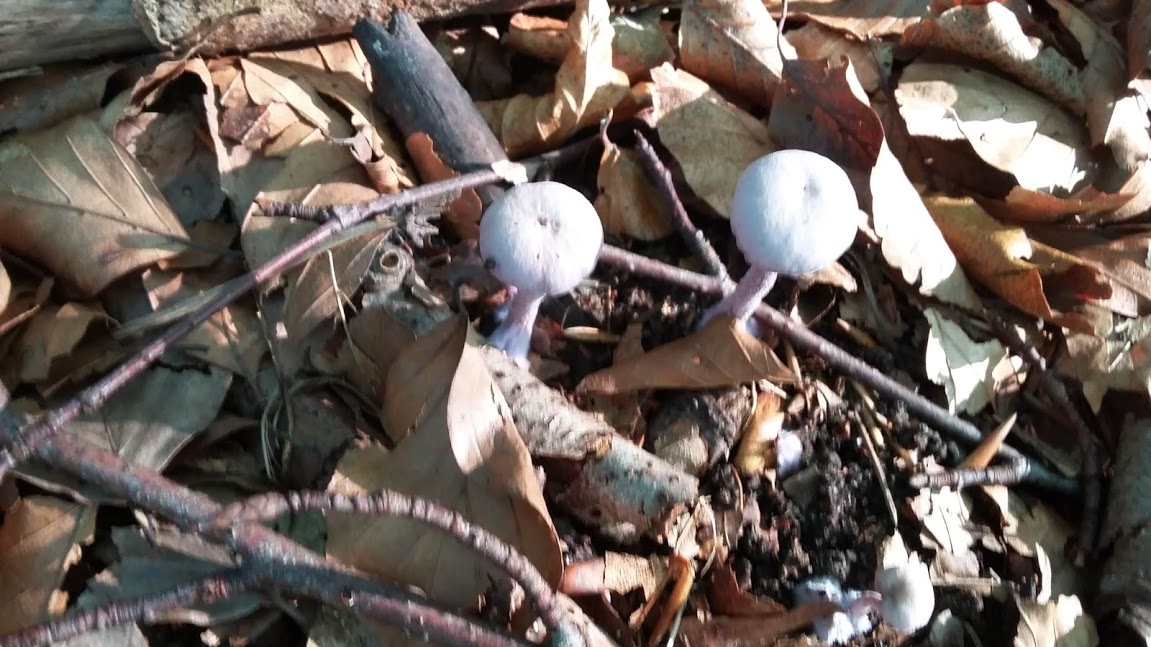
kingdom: Fungi
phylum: Basidiomycota
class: Agaricomycetes
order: Agaricales
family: Hydnangiaceae
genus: Laccaria
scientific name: Laccaria amethystina
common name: violet ametysthat
